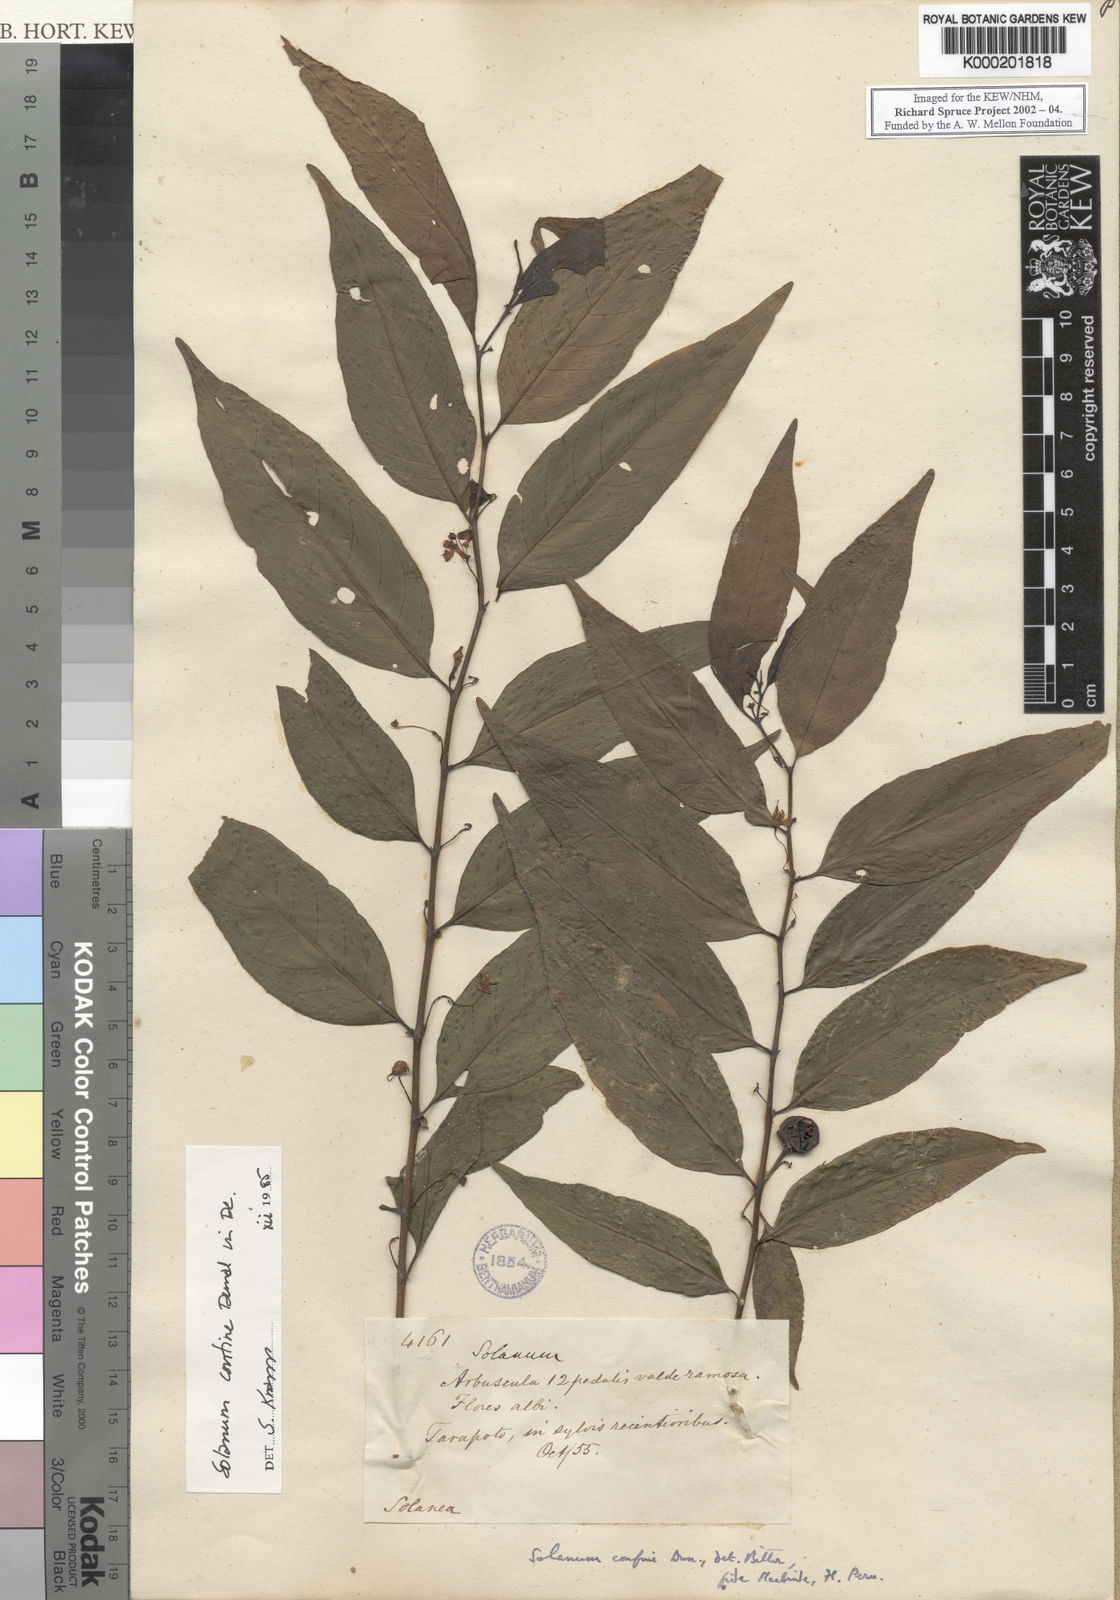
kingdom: Plantae
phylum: Tracheophyta
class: Magnoliopsida
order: Solanales
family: Solanaceae
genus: Solanum
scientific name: Solanum
